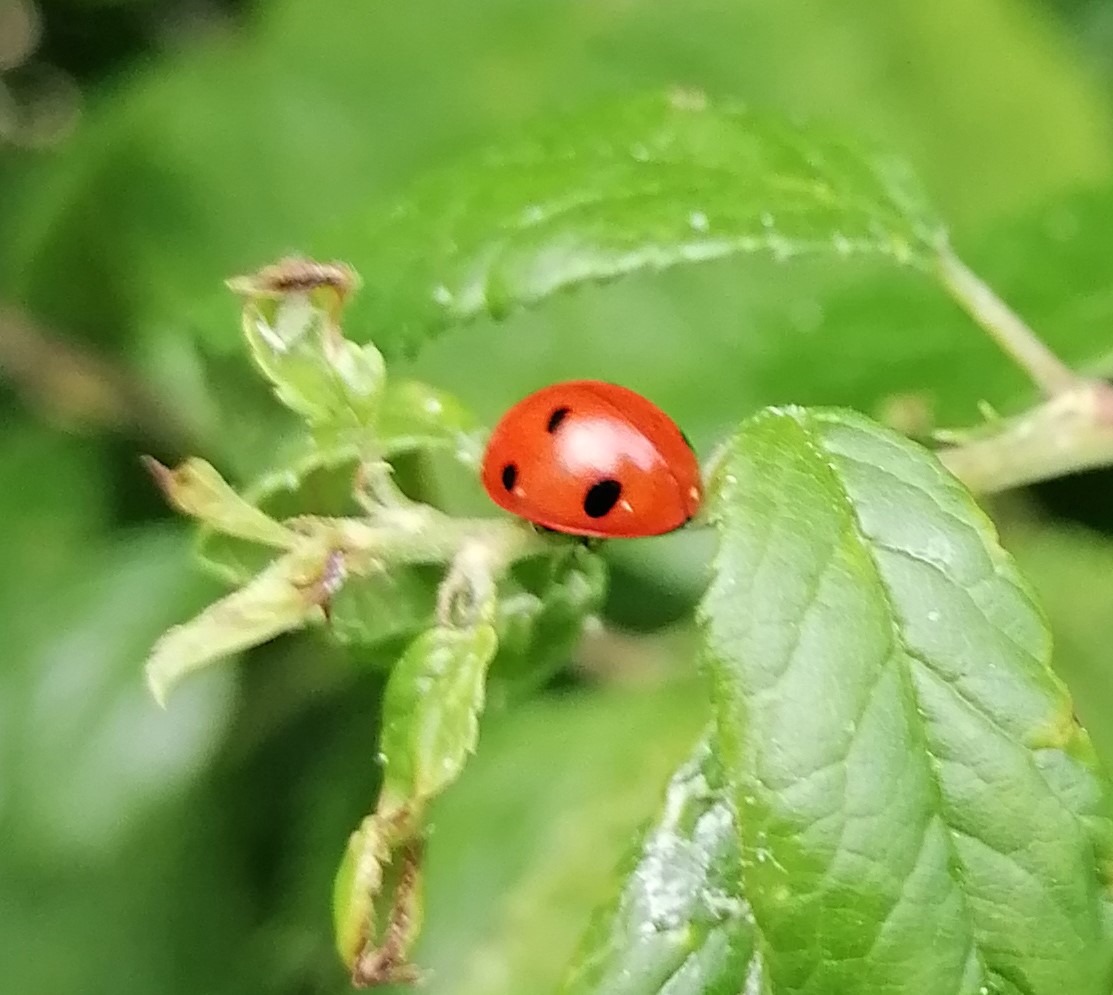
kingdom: Animalia
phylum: Arthropoda
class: Insecta
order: Coleoptera
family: Coccinellidae
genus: Coccinella
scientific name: Coccinella septempunctata
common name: Syvplettet mariehøne
